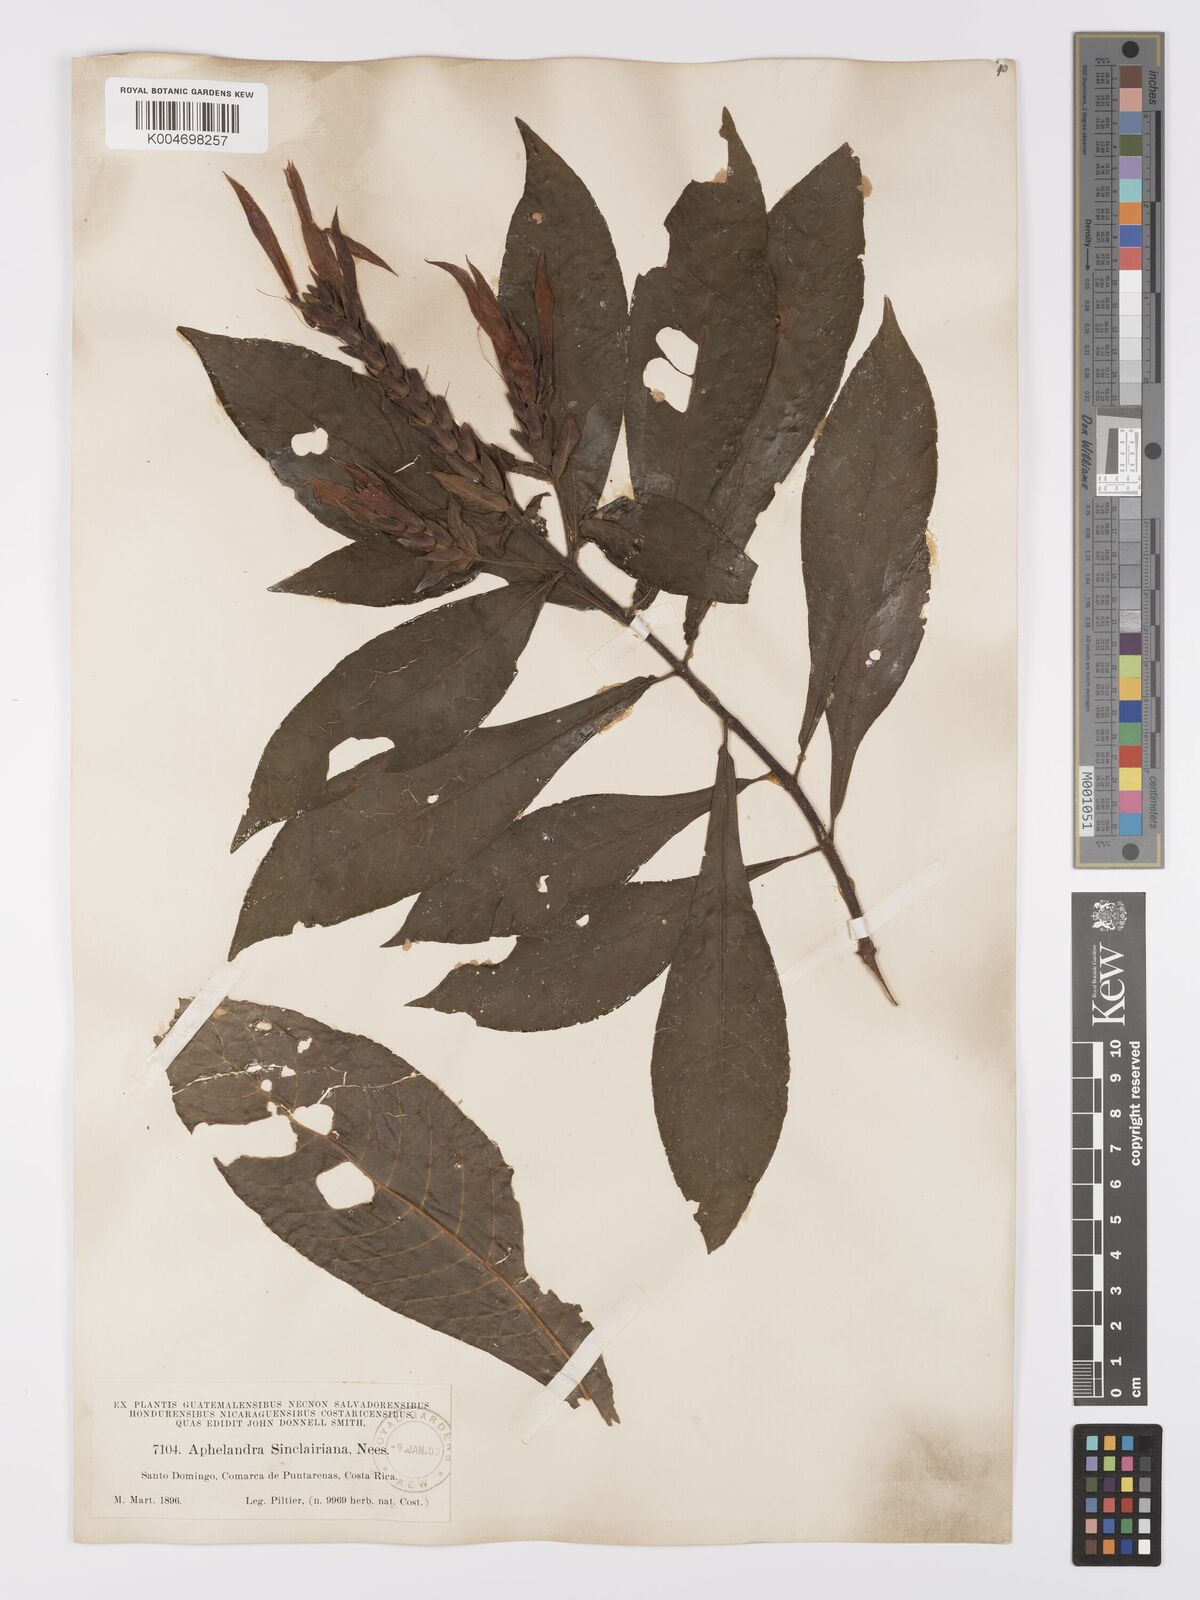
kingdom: Plantae
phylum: Tracheophyta
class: Magnoliopsida
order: Lamiales
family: Acanthaceae
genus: Aphelandra
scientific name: Aphelandra sinclairiana
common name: Coral aphelandra
